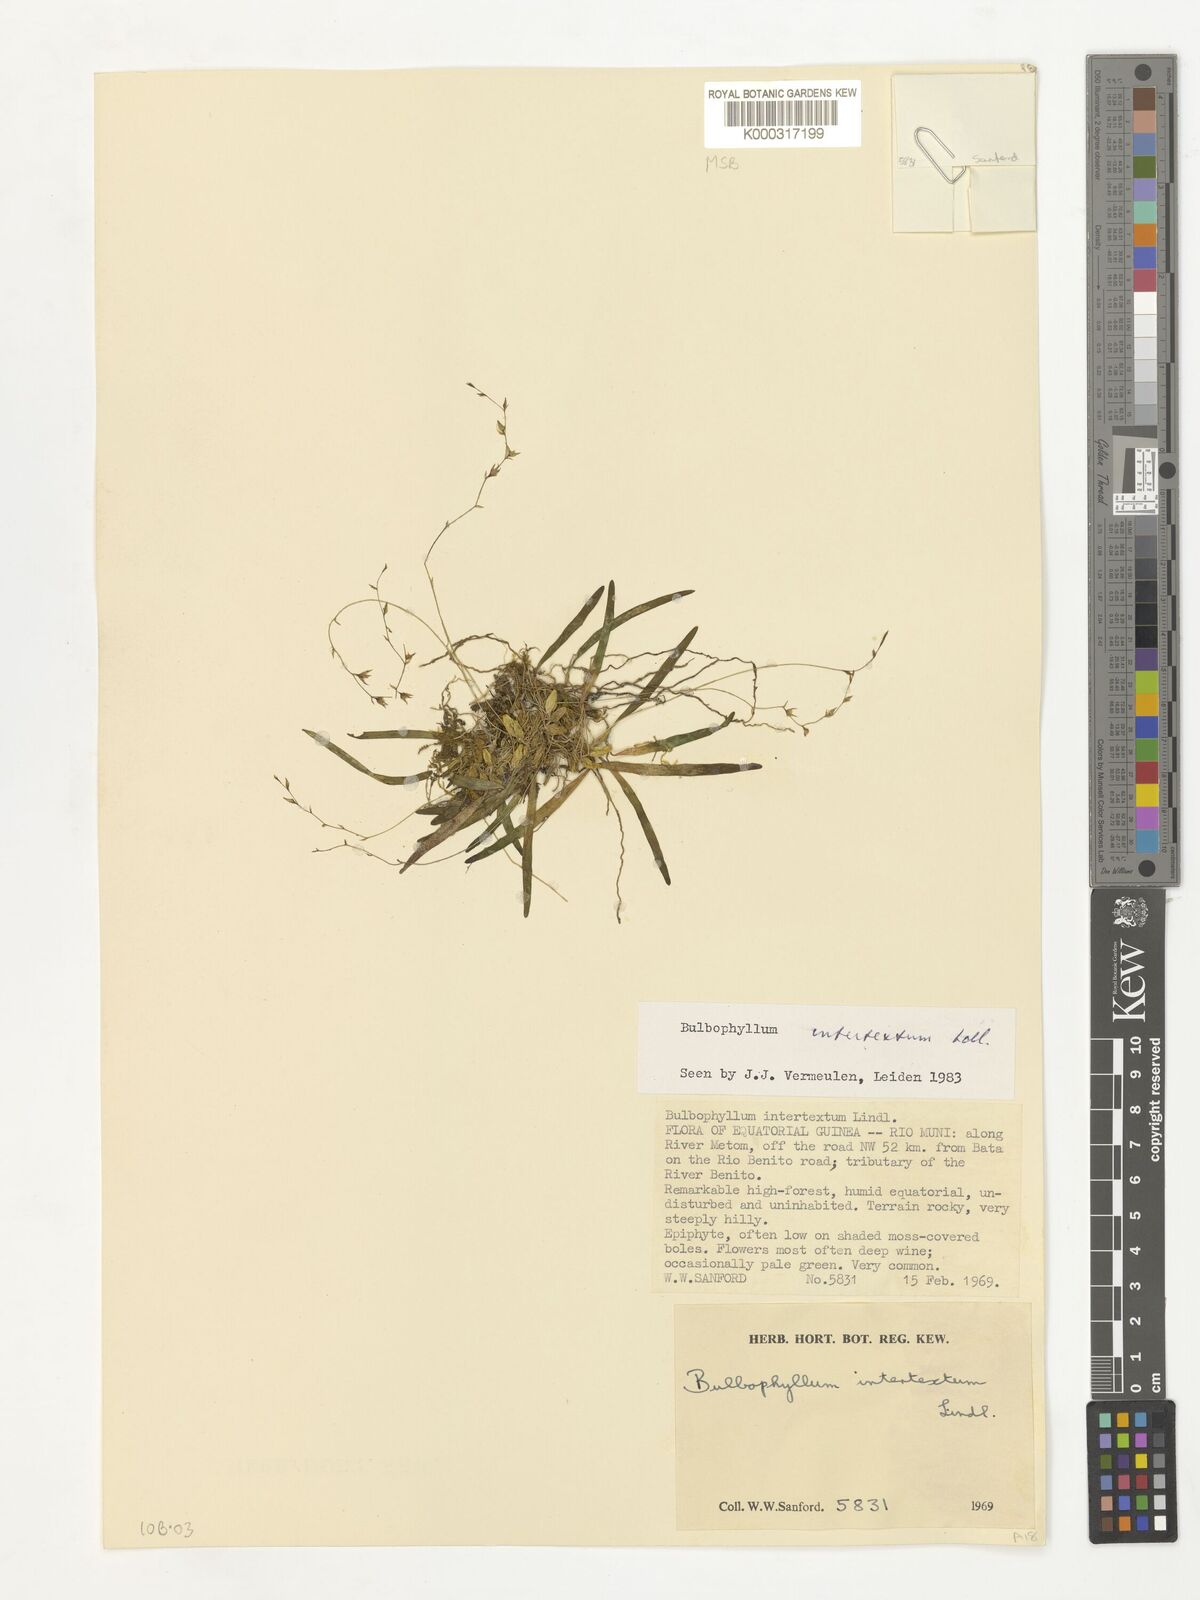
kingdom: Plantae
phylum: Tracheophyta
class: Liliopsida
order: Asparagales
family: Orchidaceae
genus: Bulbophyllum
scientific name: Bulbophyllum intertextum
